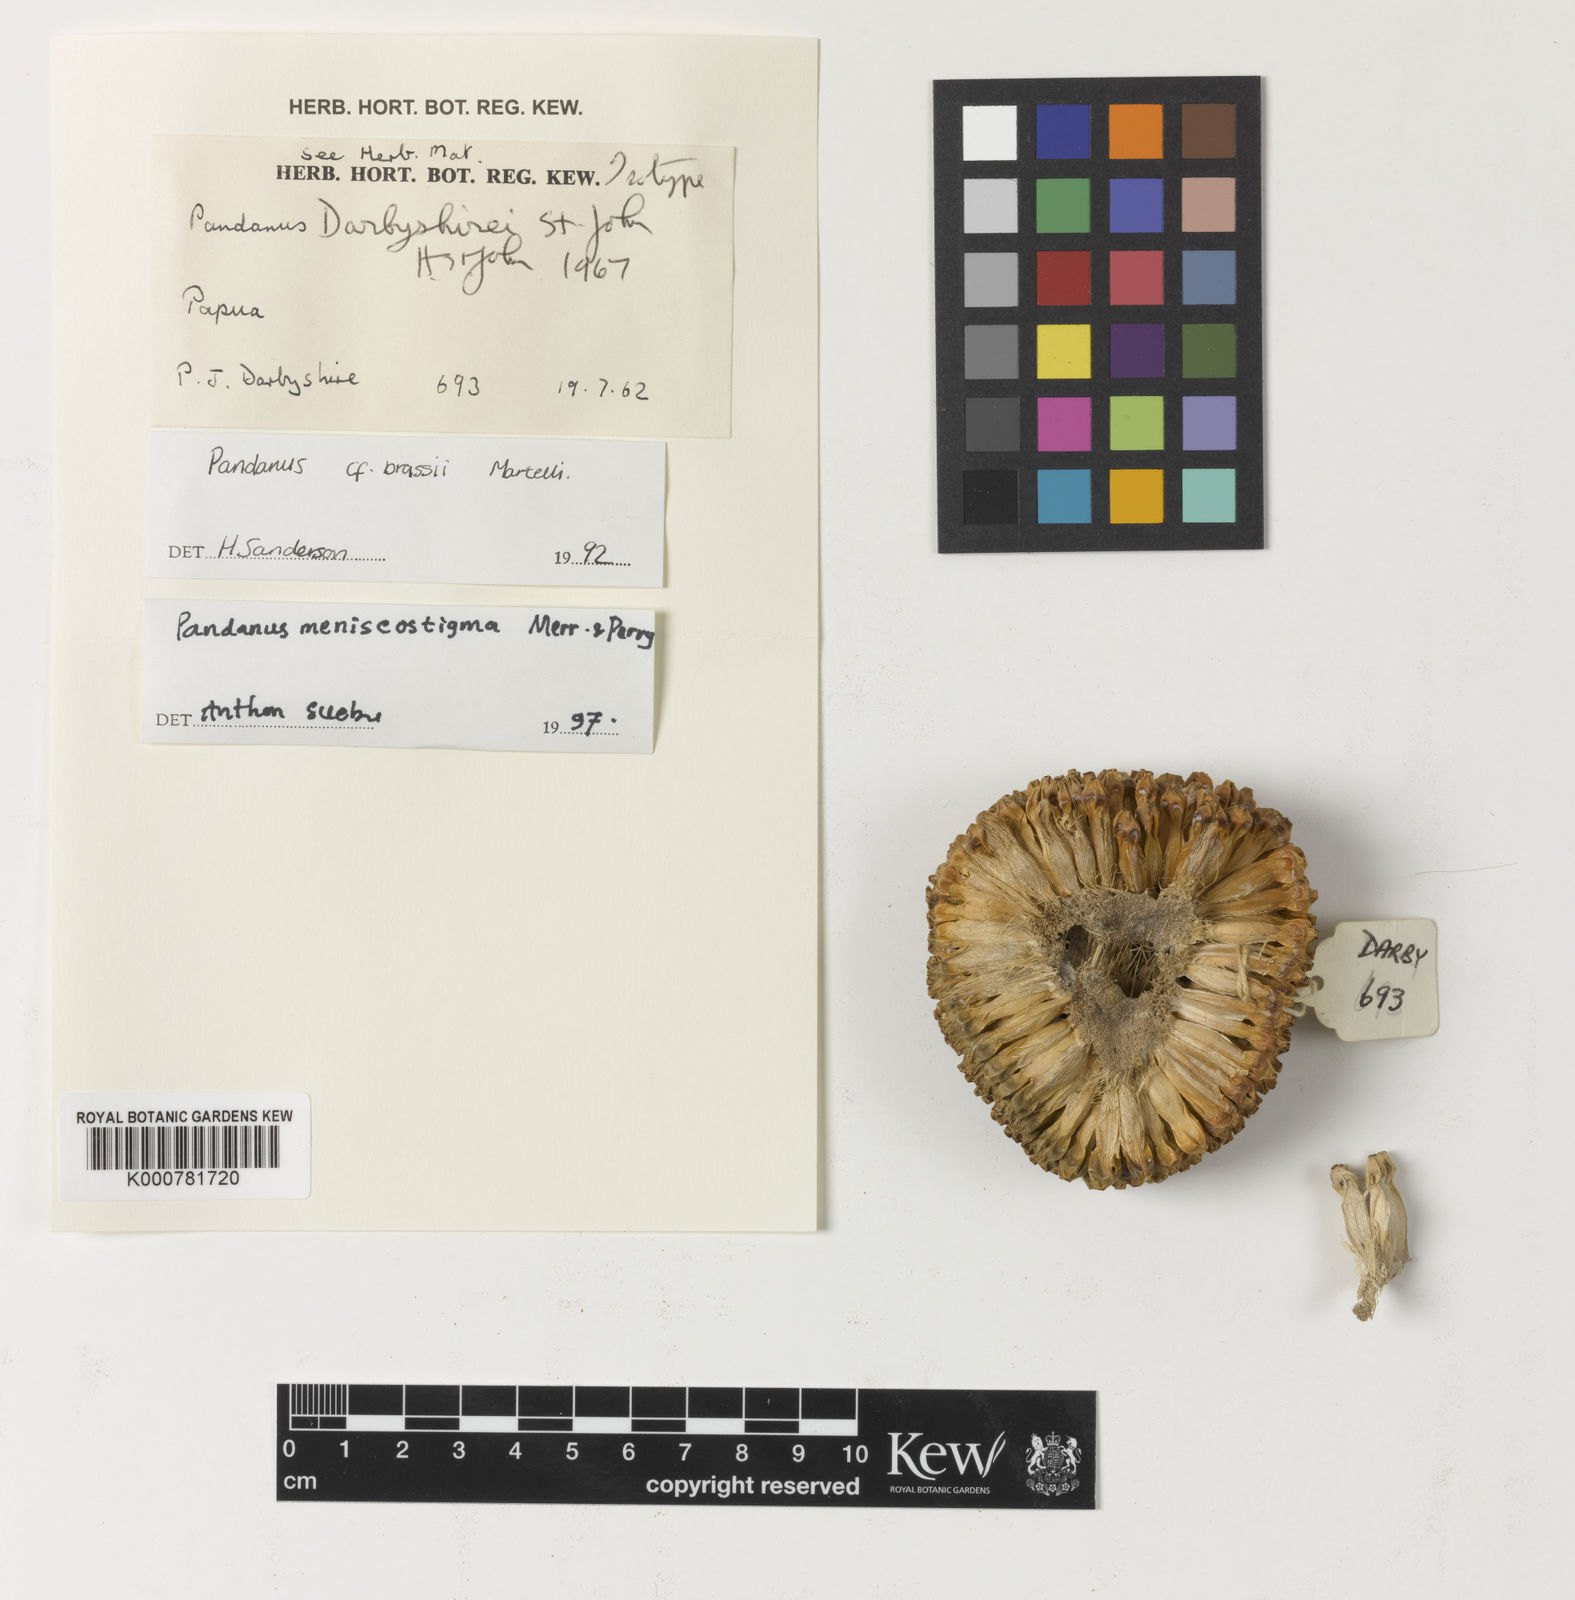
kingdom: Plantae
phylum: Tracheophyta
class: Liliopsida
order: Pandanales
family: Pandanaceae
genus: Pandanus
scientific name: Pandanus brassii
